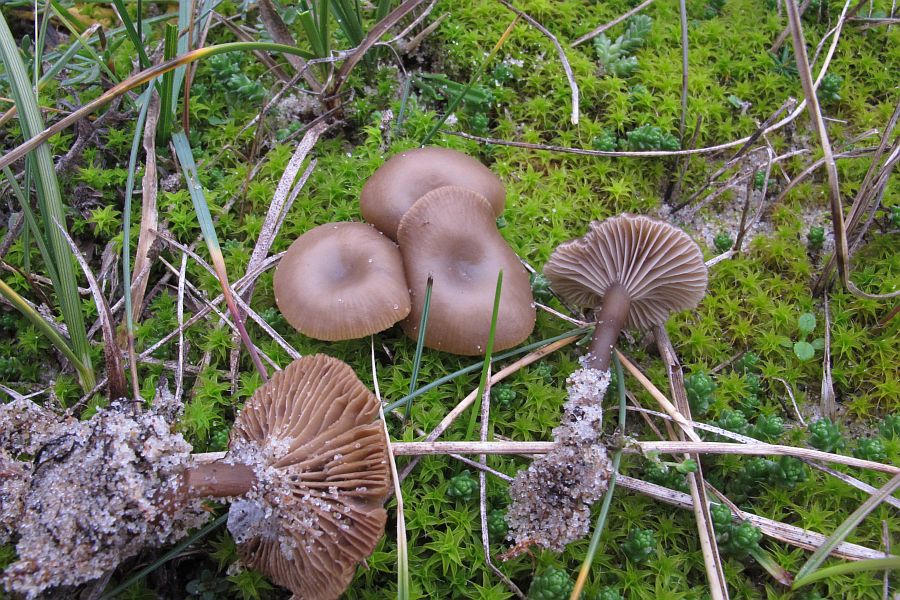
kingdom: Fungi
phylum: Basidiomycota
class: Agaricomycetes
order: Agaricales
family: Tricholomataceae
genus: Clitocybe
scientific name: Clitocybe barbularum
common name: klit-tragthat
